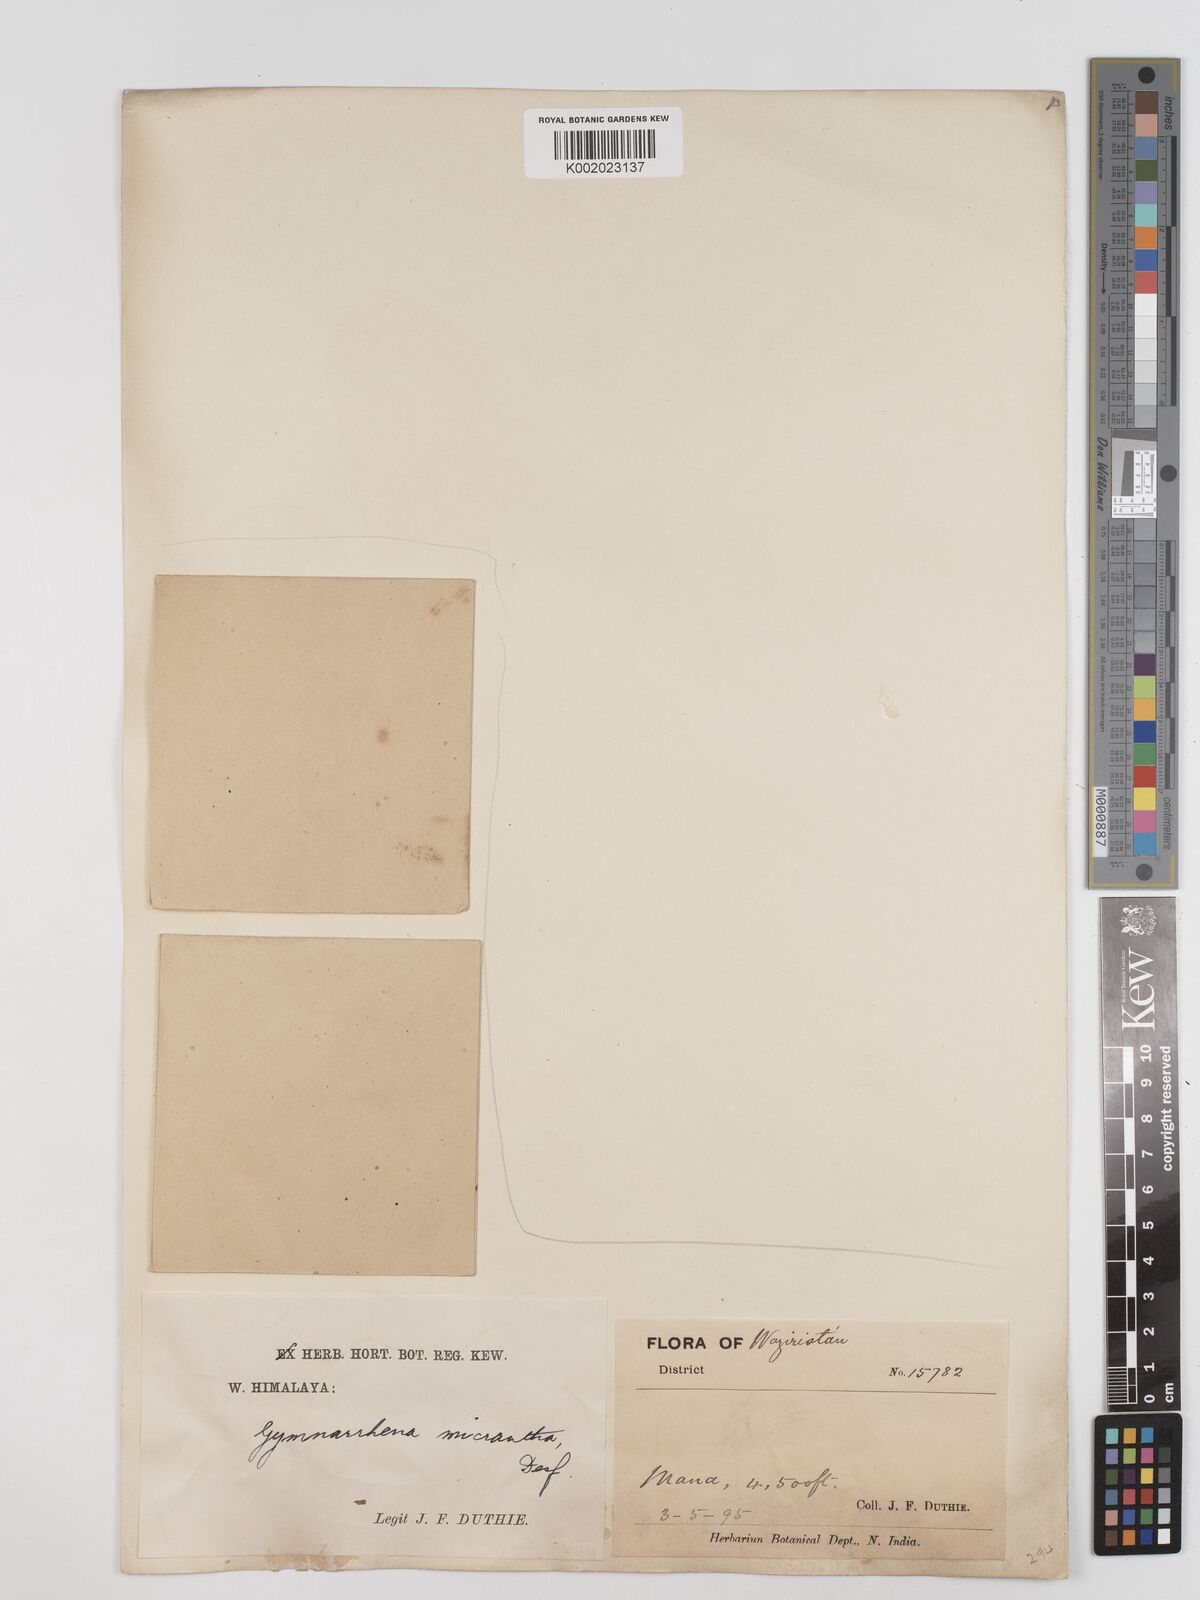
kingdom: Plantae
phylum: Tracheophyta
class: Magnoliopsida
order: Asterales
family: Asteraceae
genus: Gymnarrhena
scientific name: Gymnarrhena micrantha
